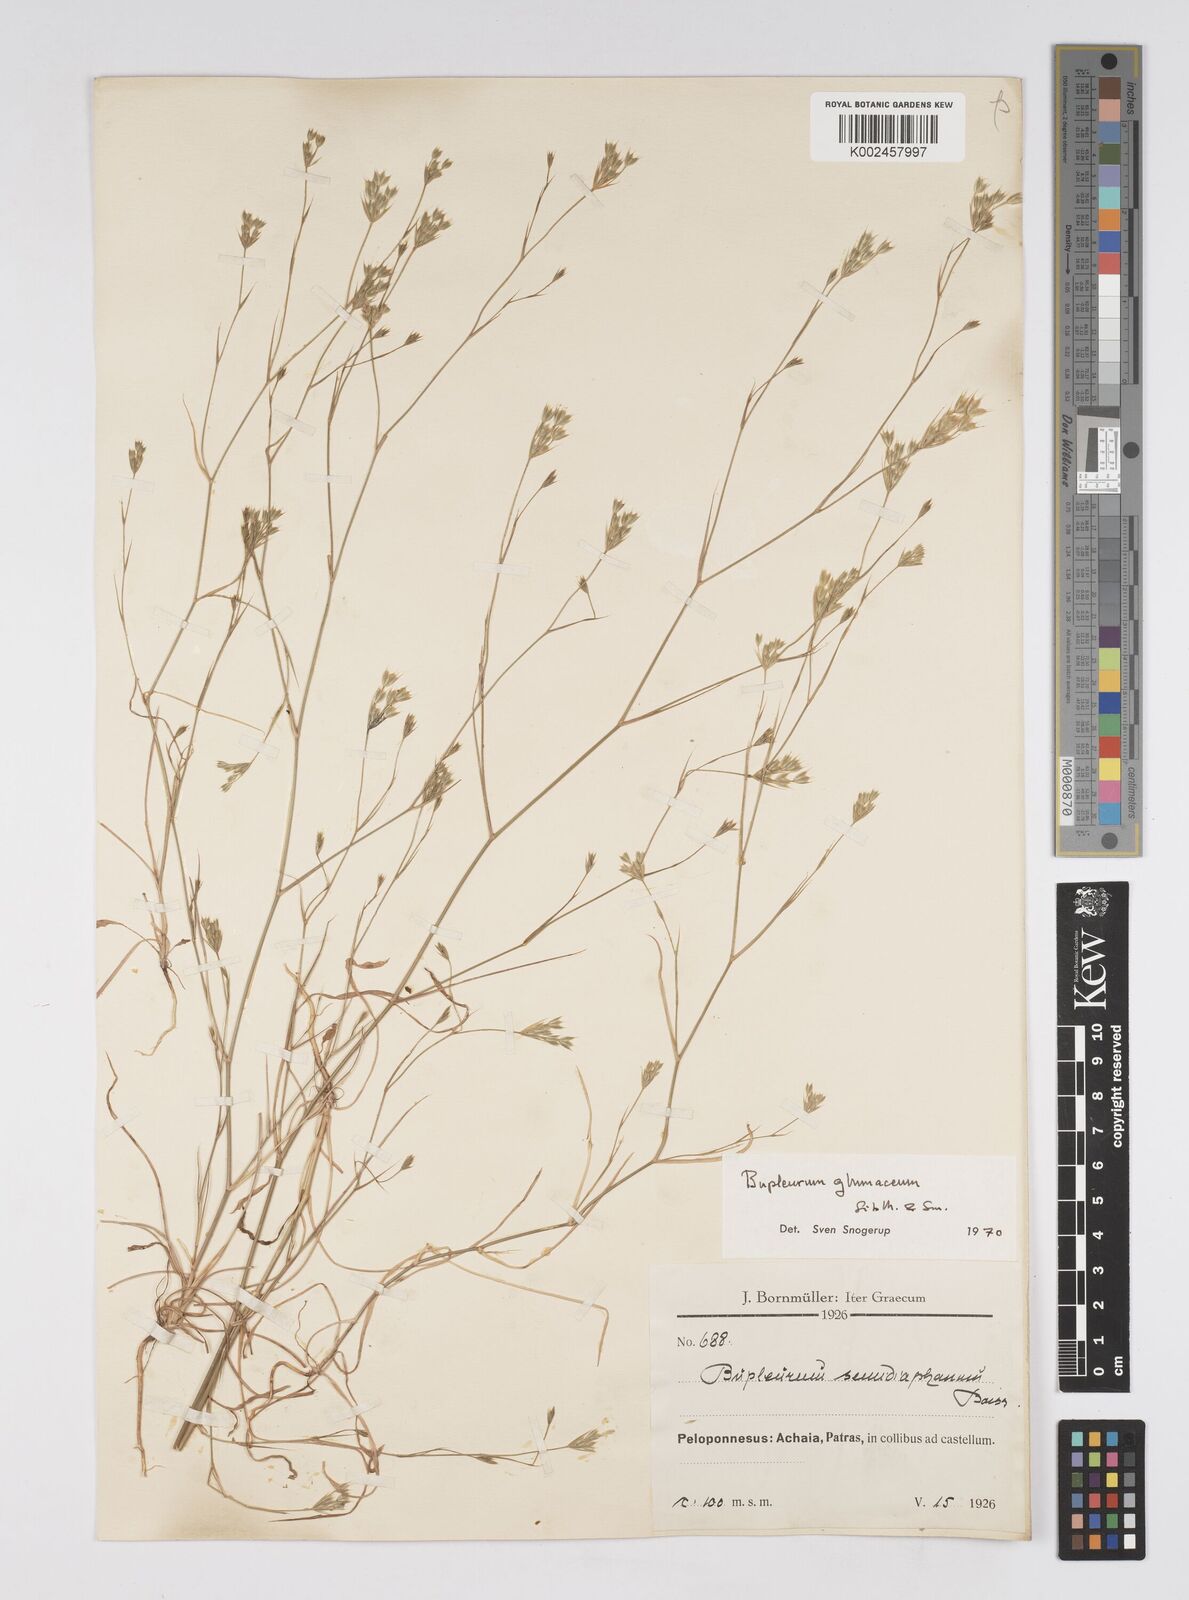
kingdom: Plantae
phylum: Tracheophyta
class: Magnoliopsida
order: Apiales
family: Apiaceae
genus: Bupleurum
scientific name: Bupleurum glumaceum
